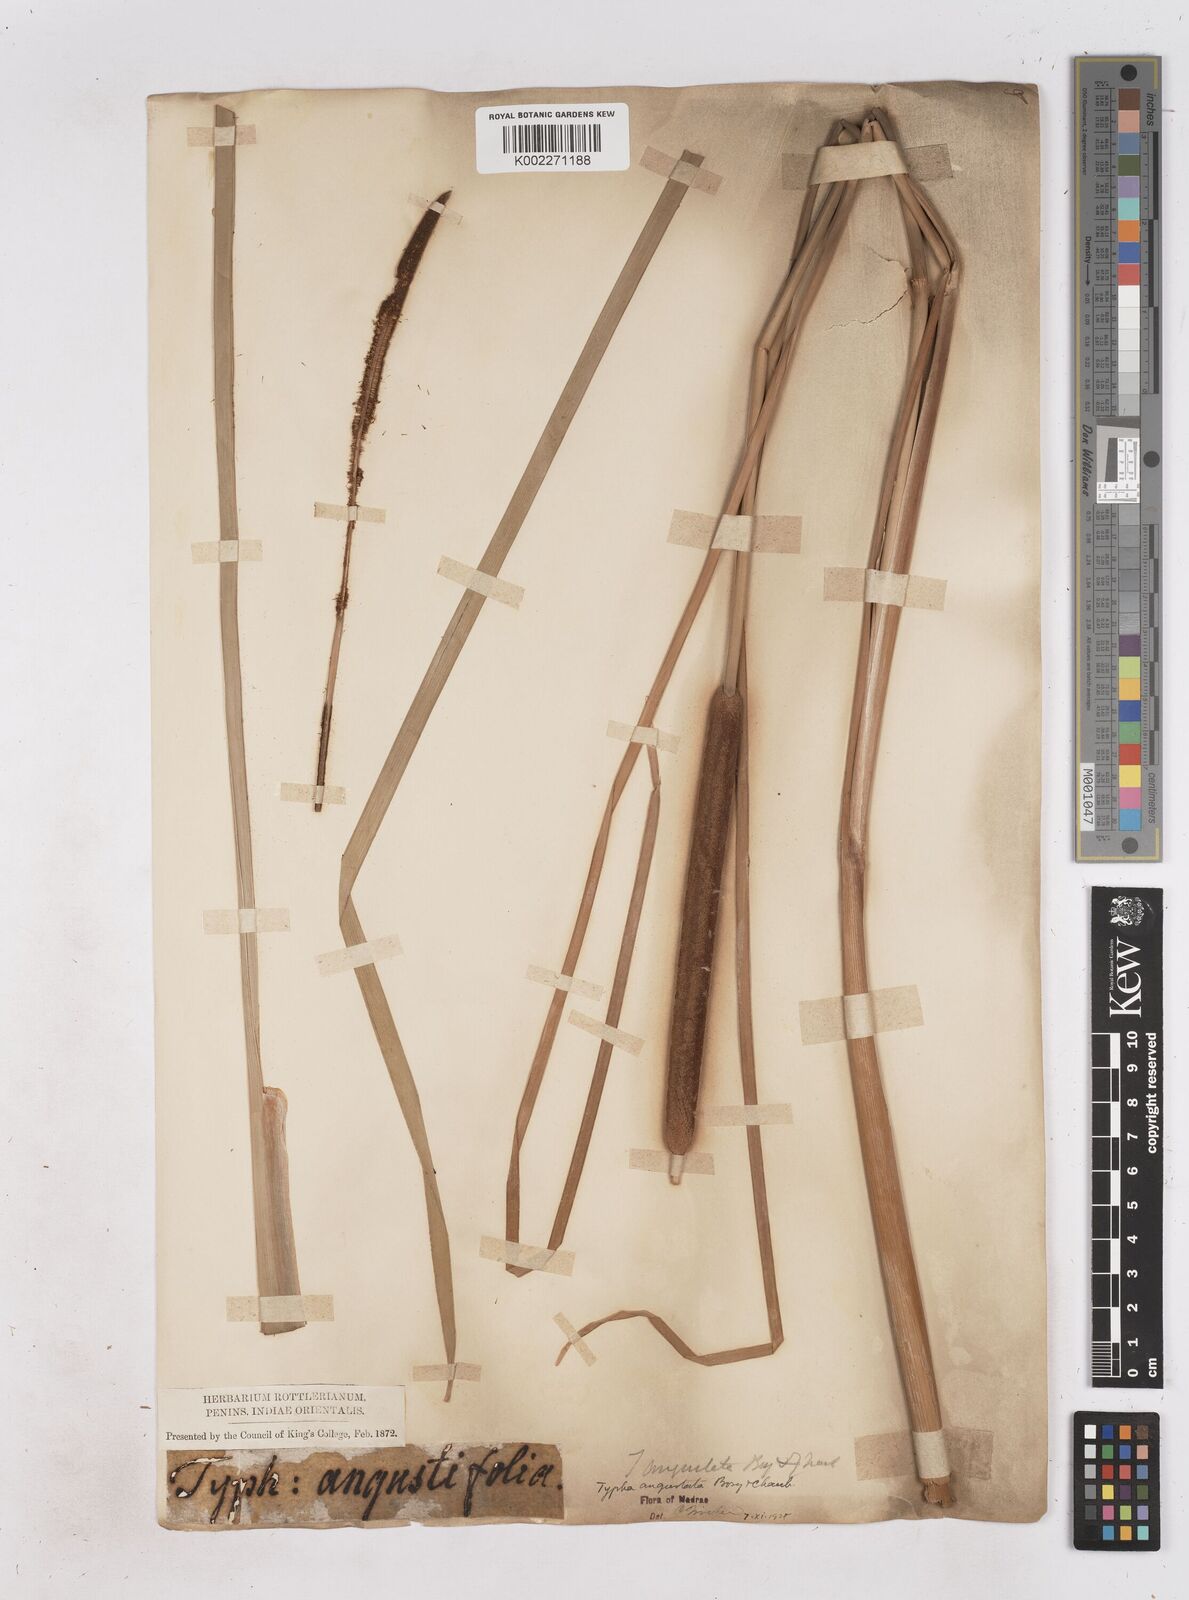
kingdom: Plantae
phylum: Tracheophyta
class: Liliopsida
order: Poales
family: Typhaceae
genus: Typha
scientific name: Typha domingensis
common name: Southern cattail
